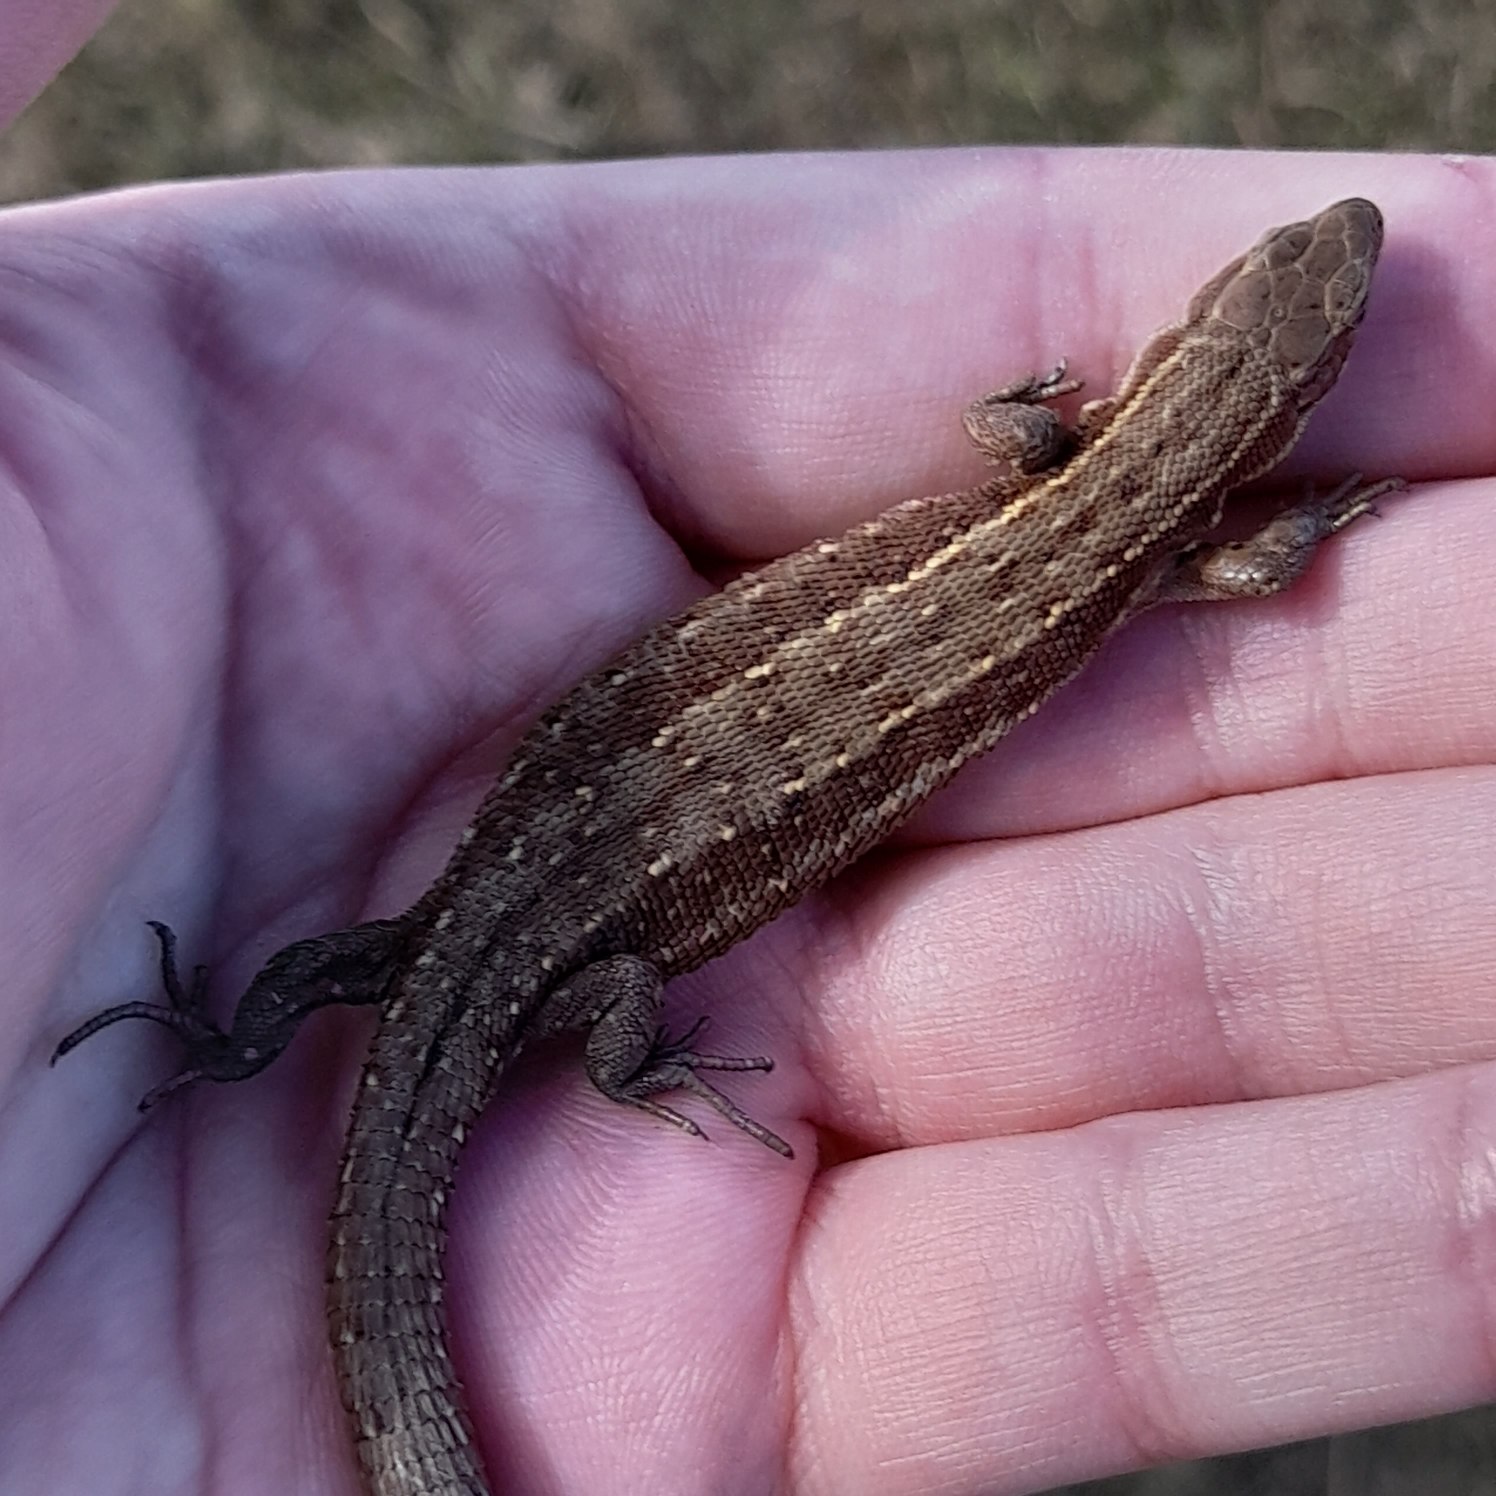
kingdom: Animalia
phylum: Chordata
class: Squamata
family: Lacertidae
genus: Zootoca
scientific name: Zootoca vivipara
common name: Skovfirben
